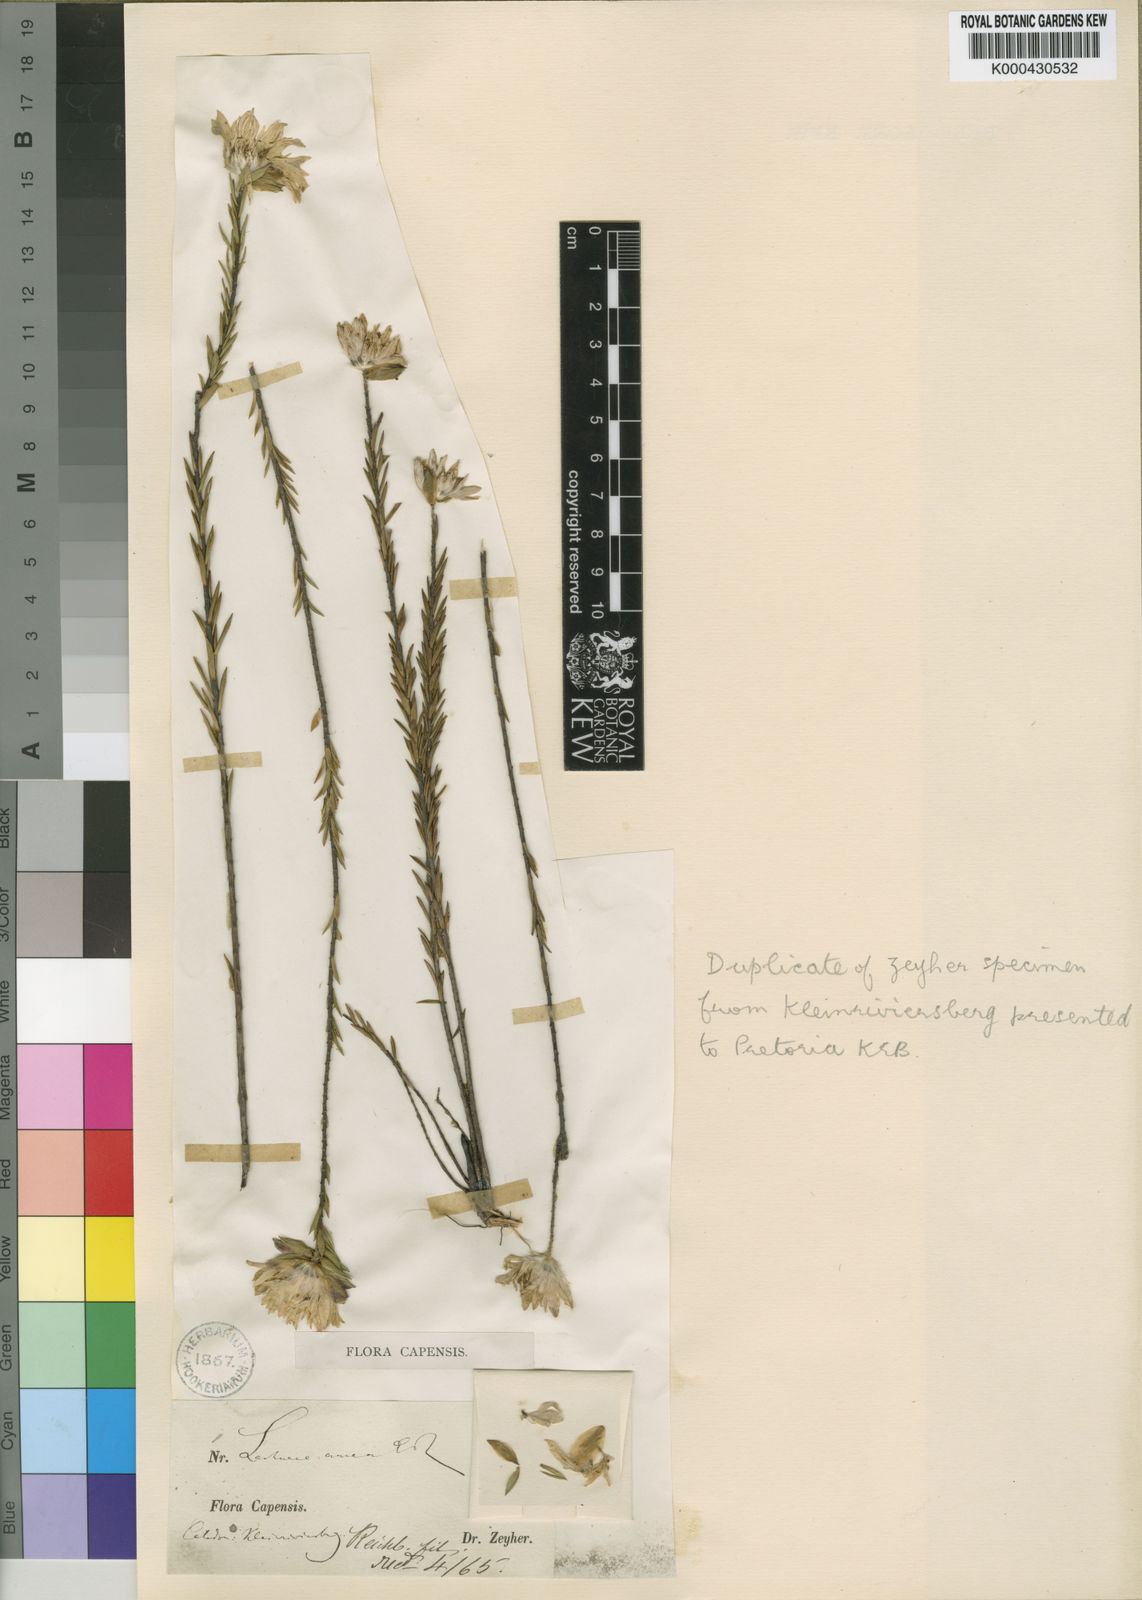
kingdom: Plantae
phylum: Tracheophyta
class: Magnoliopsida
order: Malvales
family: Thymelaeaceae
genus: Lachnaea
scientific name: Lachnaea aurea
